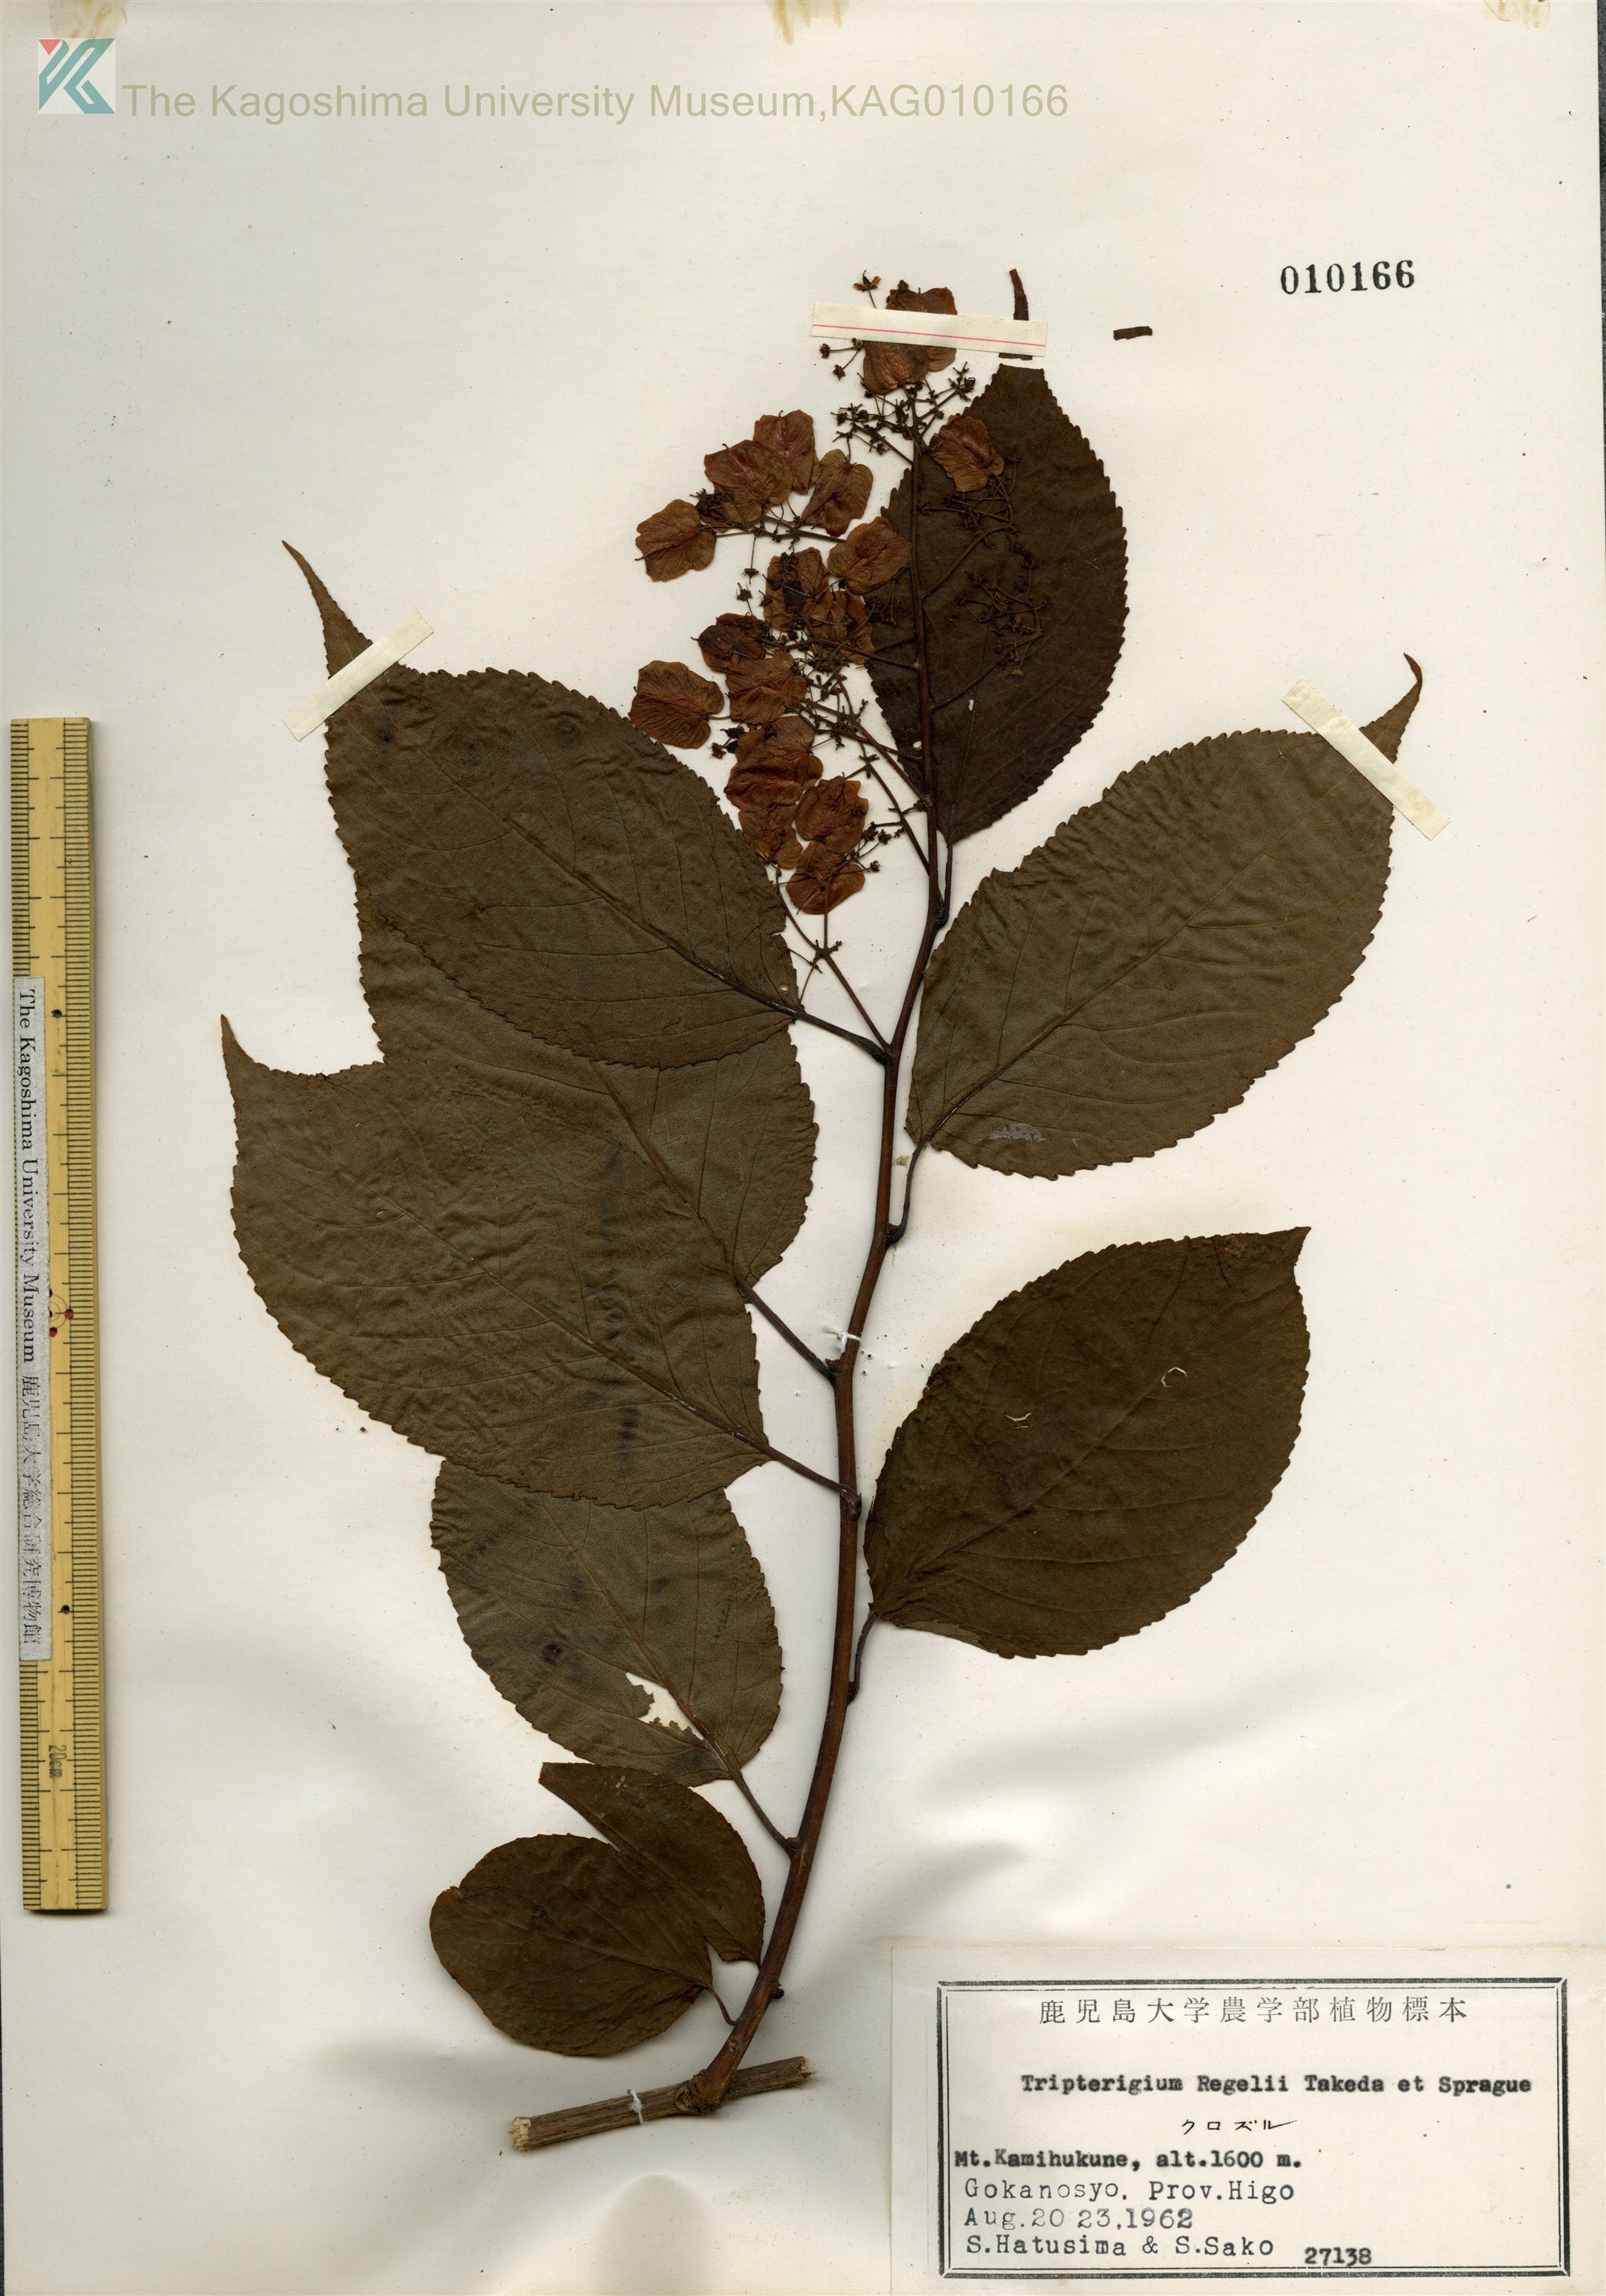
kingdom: Plantae
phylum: Tracheophyta
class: Magnoliopsida
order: Celastrales
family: Celastraceae
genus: Tripterygium
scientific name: Tripterygium wilfordii
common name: クロヅル
